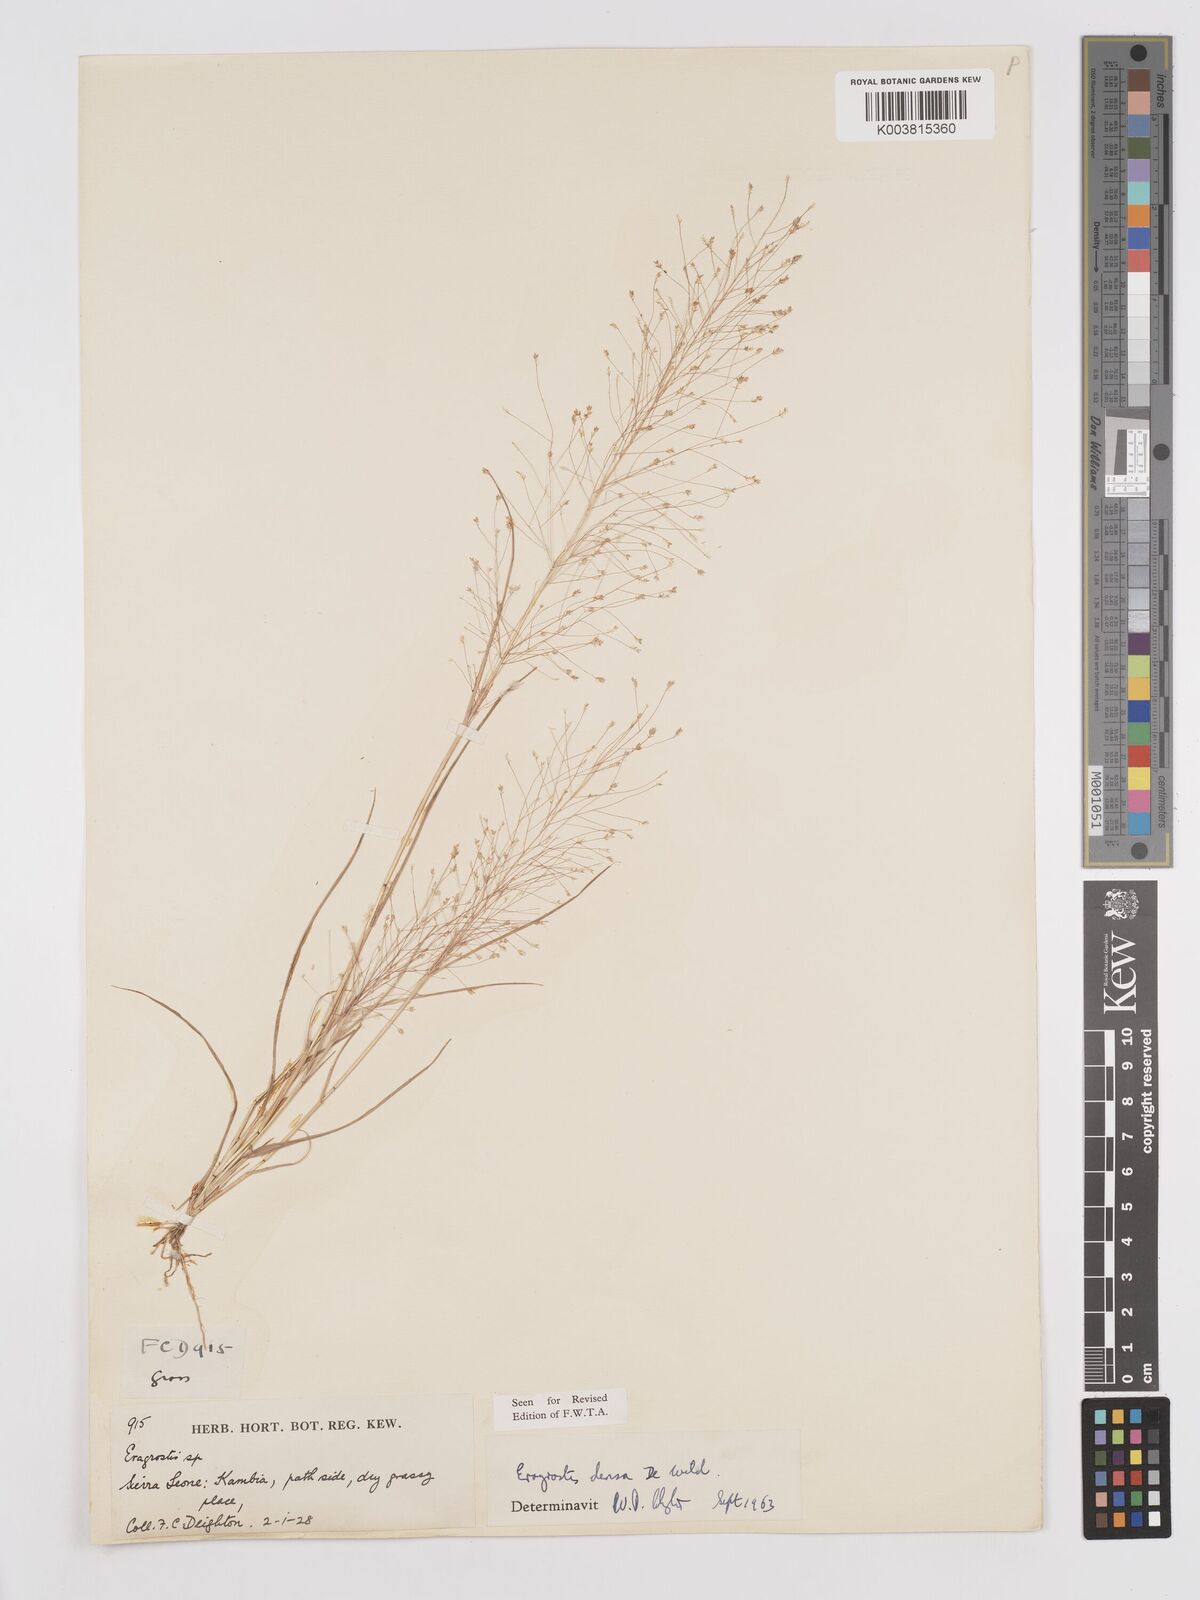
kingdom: Plantae
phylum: Tracheophyta
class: Liliopsida
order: Poales
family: Poaceae
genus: Eragrostis
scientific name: Eragrostis welwitschii
